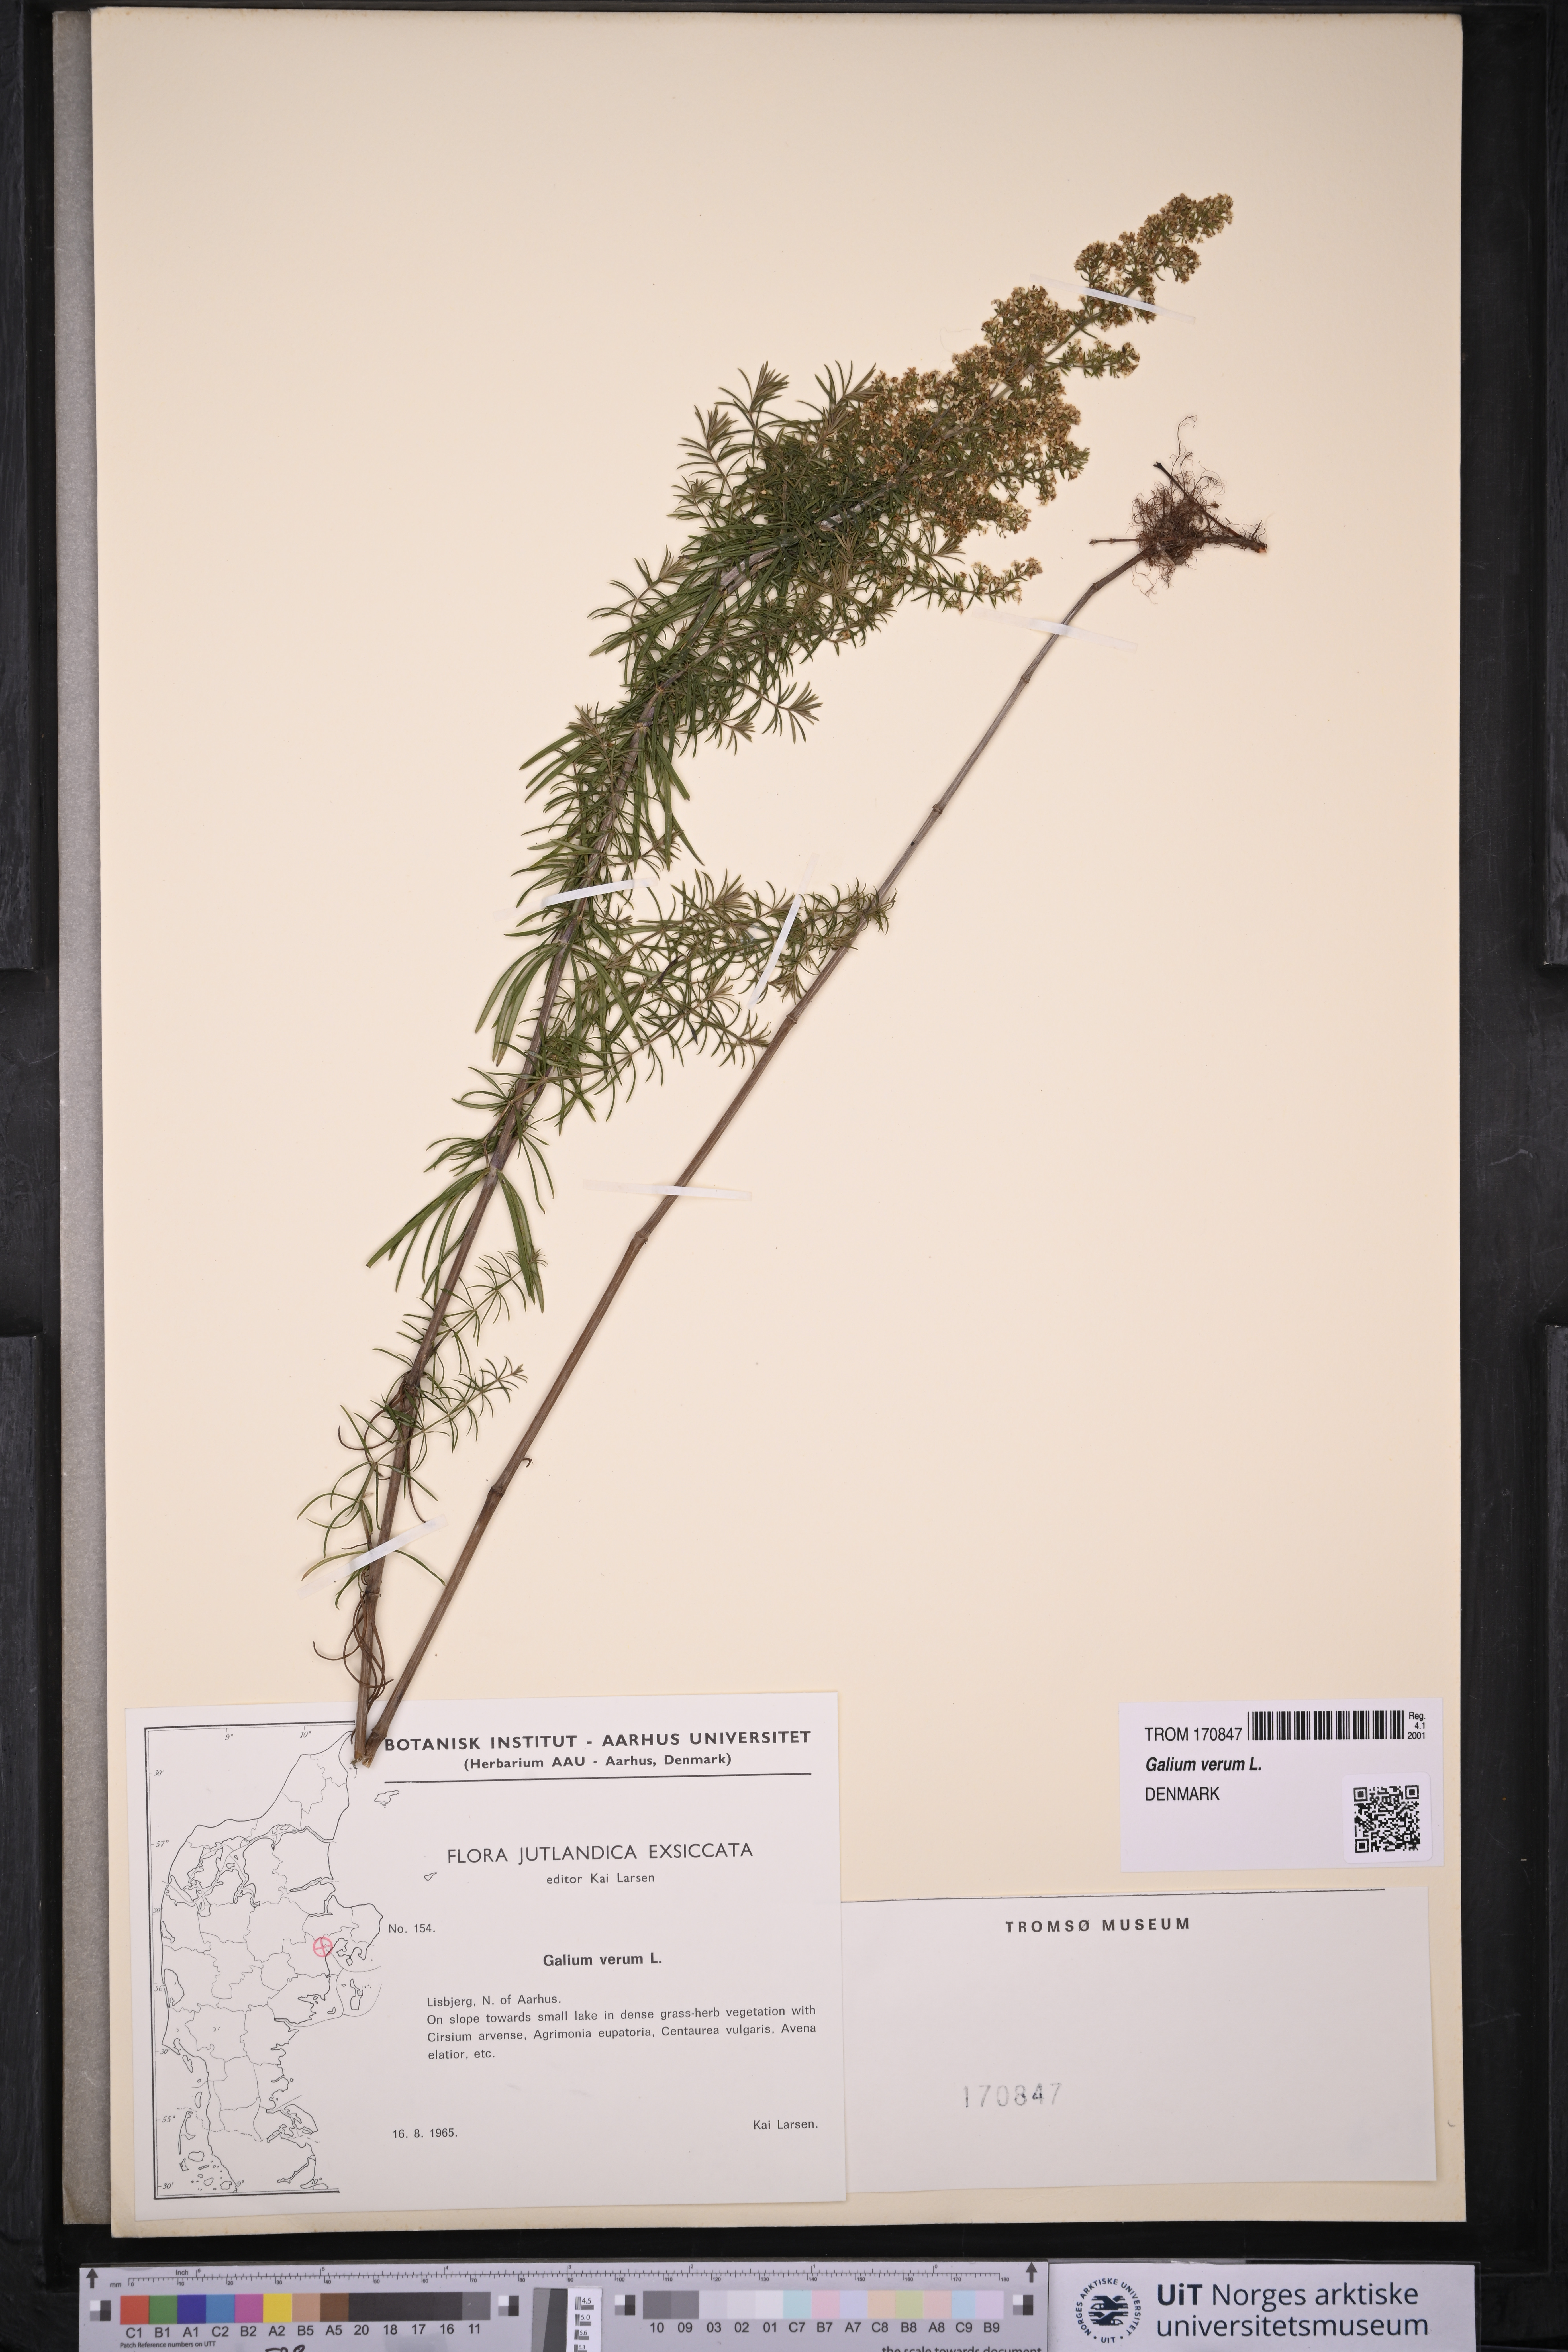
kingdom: Plantae
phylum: Tracheophyta
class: Magnoliopsida
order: Gentianales
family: Rubiaceae
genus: Galium
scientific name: Galium verum
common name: Lady's bedstraw
